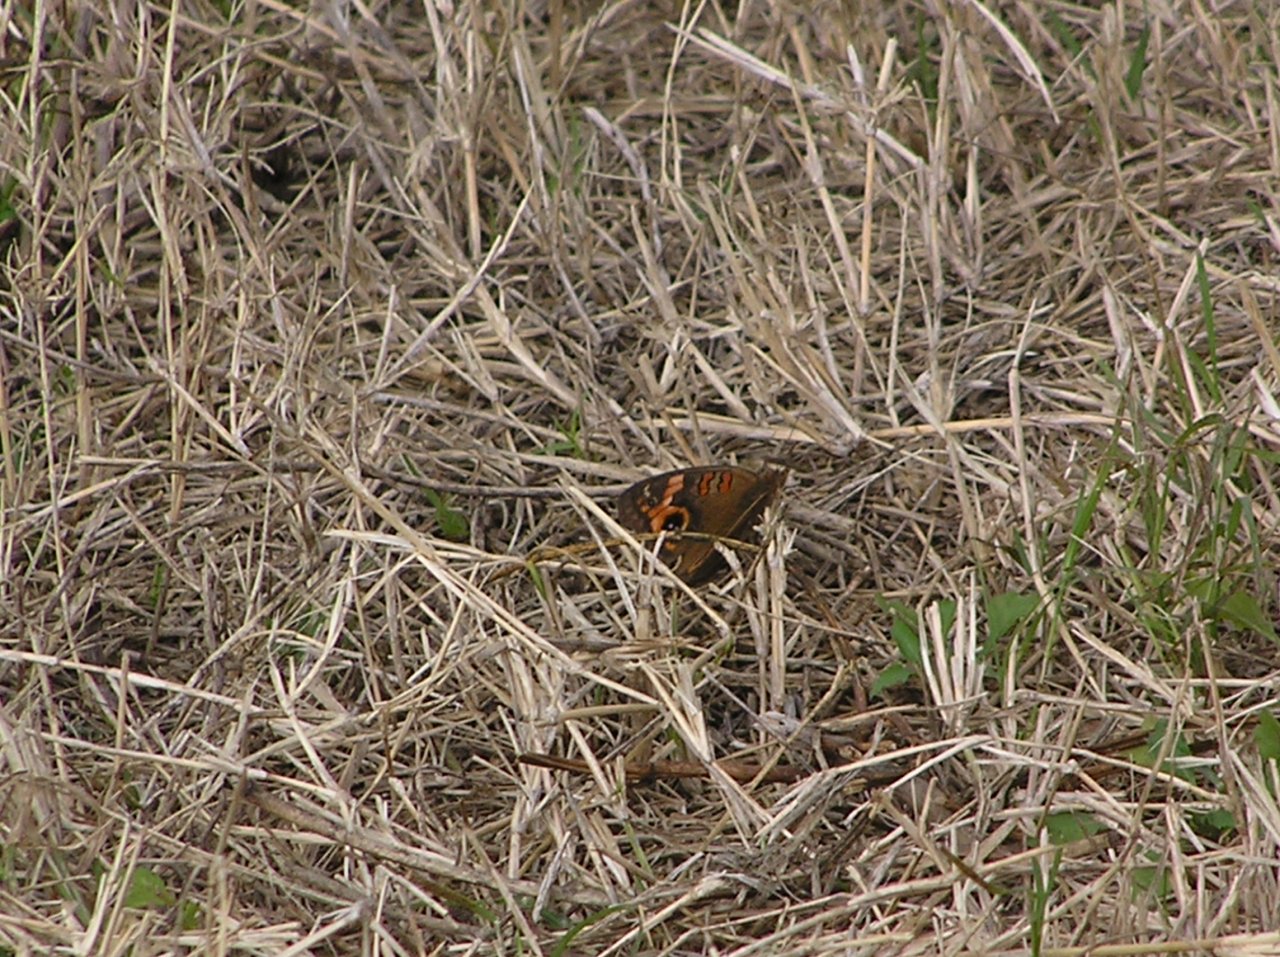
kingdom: Animalia
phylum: Arthropoda
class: Insecta
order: Lepidoptera
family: Nymphalidae
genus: Junonia
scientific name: Junonia evarete
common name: Mangrove Buckeye
